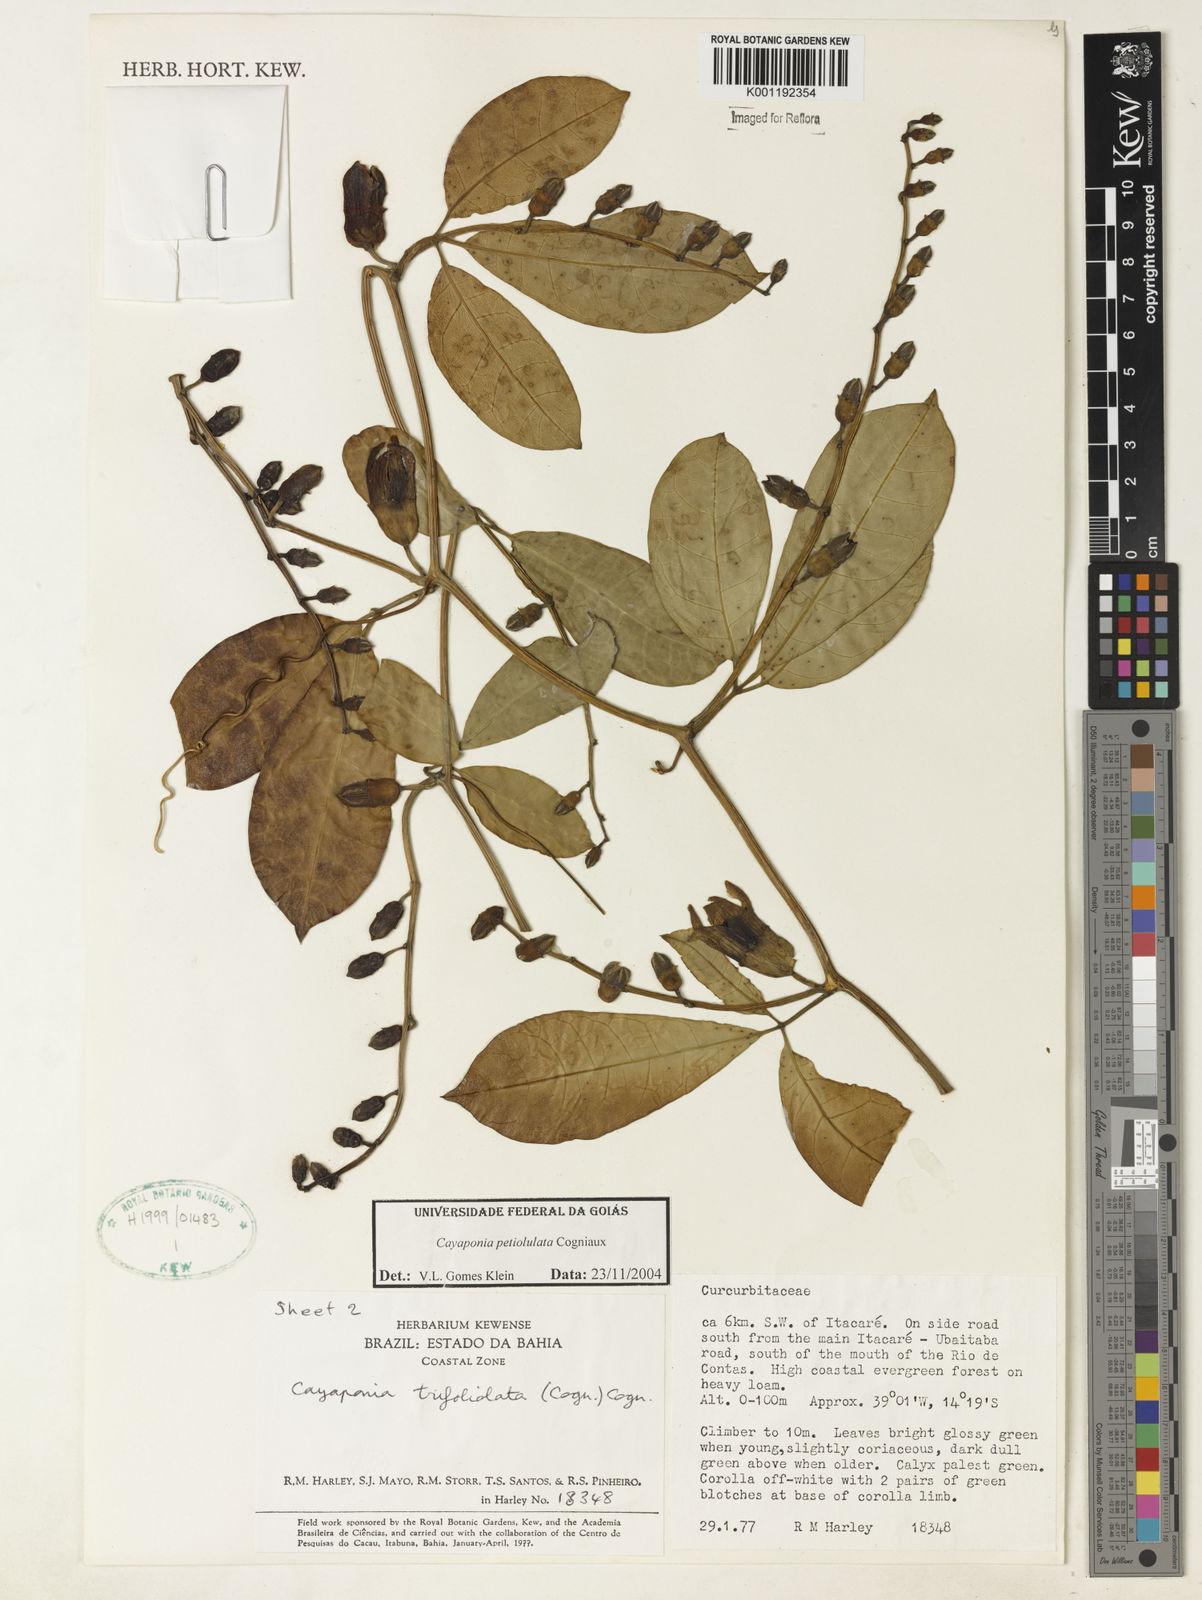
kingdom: Plantae
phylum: Tracheophyta
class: Magnoliopsida
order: Cucurbitales
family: Cucurbitaceae
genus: Cayaponia
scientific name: Cayaponia petiolulata
